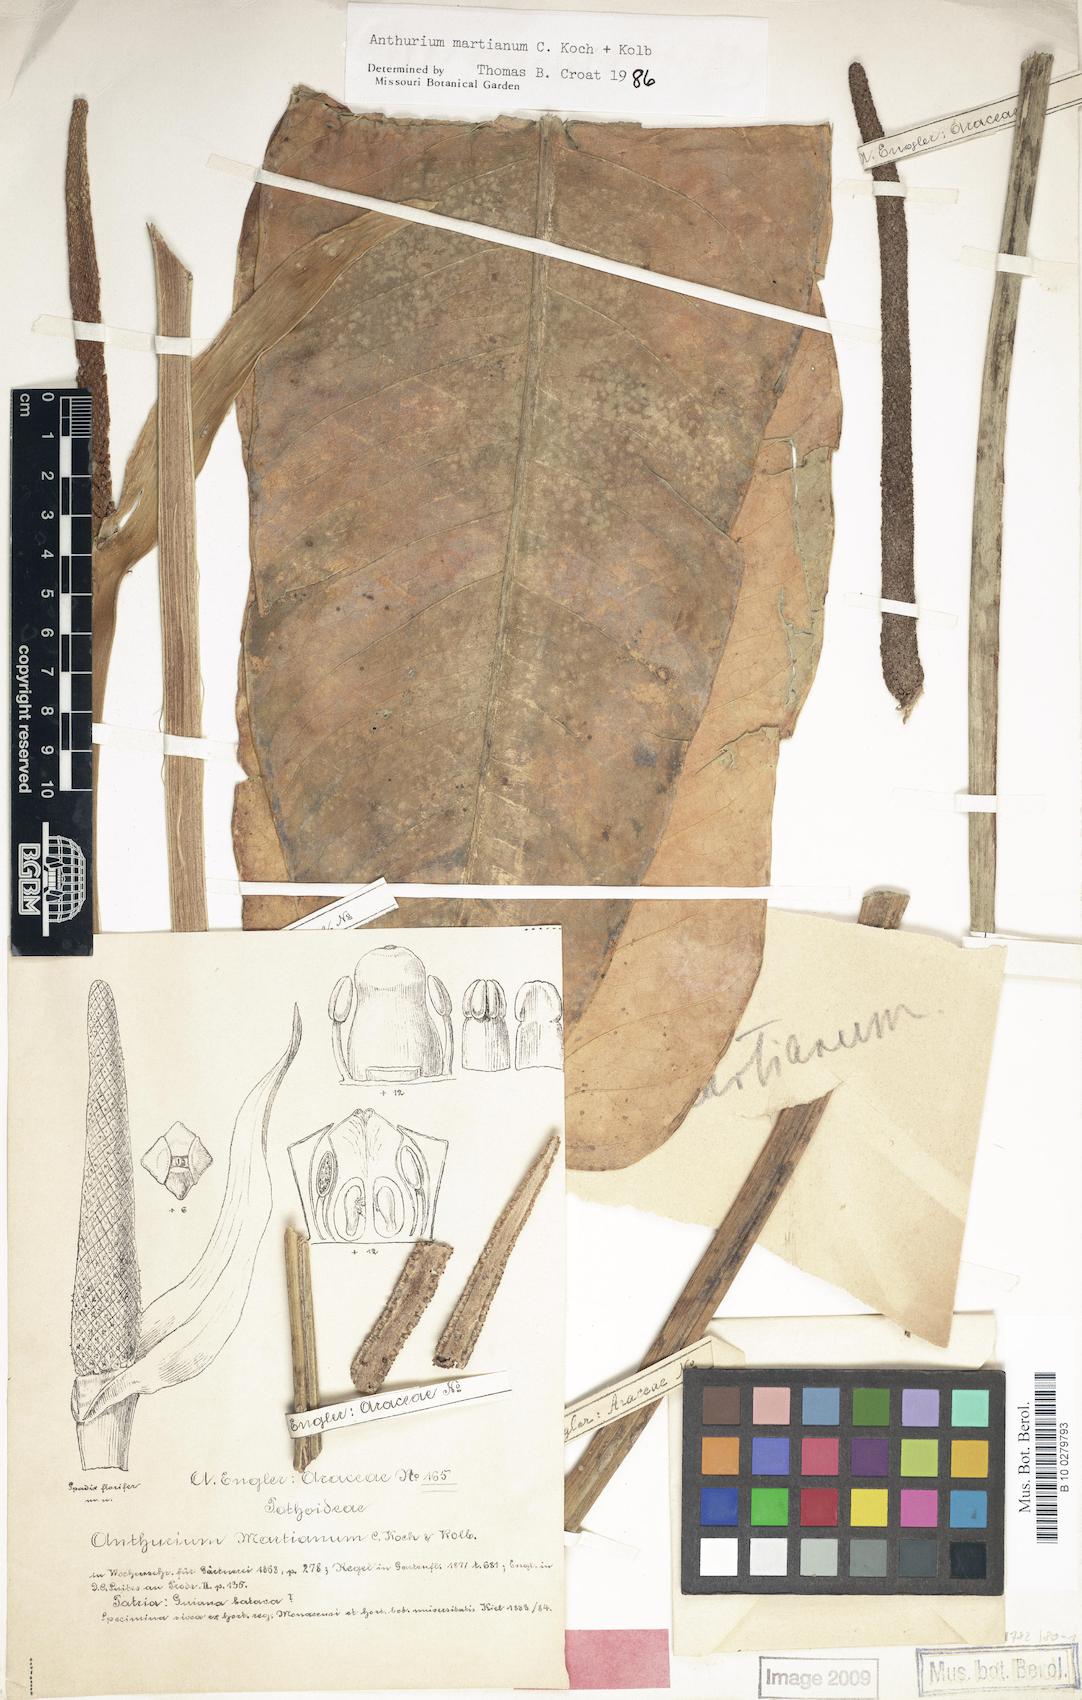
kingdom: Plantae
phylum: Tracheophyta
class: Liliopsida
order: Alismatales
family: Araceae
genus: Anthurium
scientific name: Anthurium martianum
